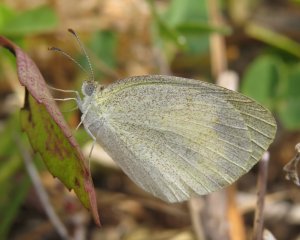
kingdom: Animalia
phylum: Arthropoda
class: Insecta
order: Lepidoptera
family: Pieridae
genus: Eurema
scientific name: Eurema daira
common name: Barred Yellow
